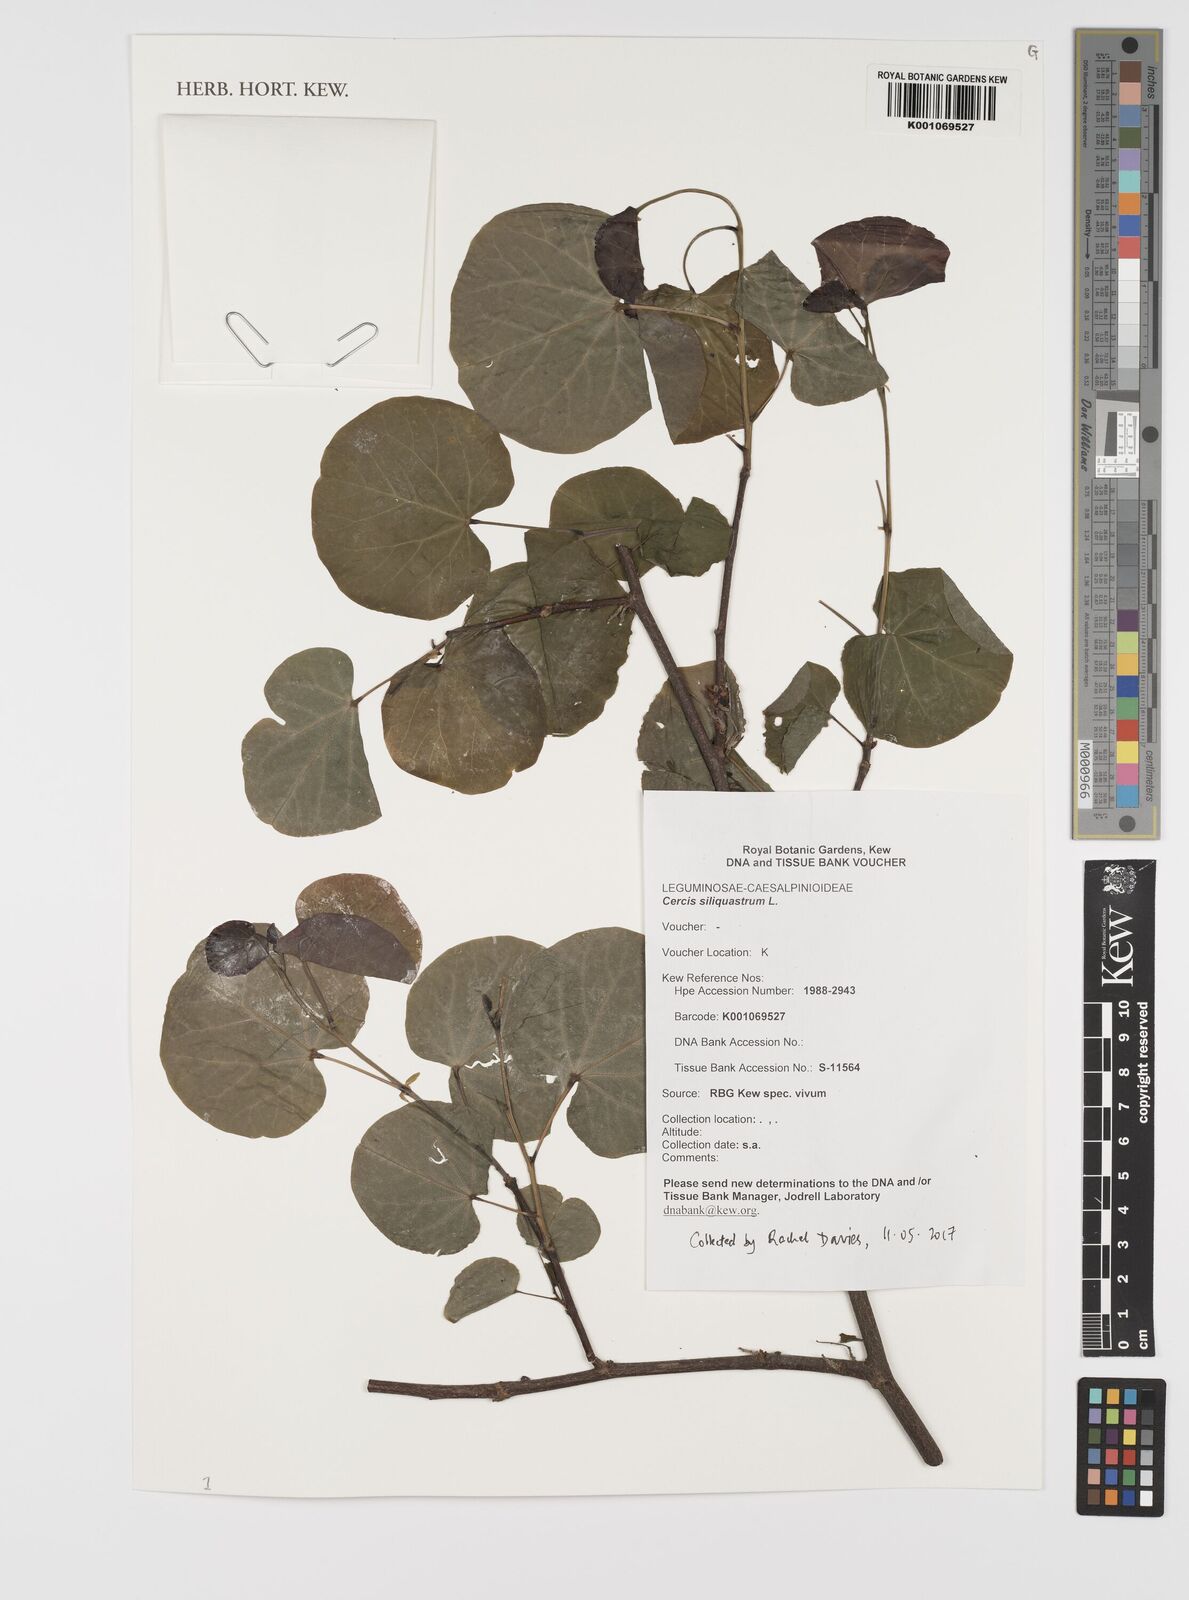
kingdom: Plantae
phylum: Tracheophyta
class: Magnoliopsida
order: Fabales
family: Fabaceae
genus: Cercis
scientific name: Cercis siliquastrum
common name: Judas tree
